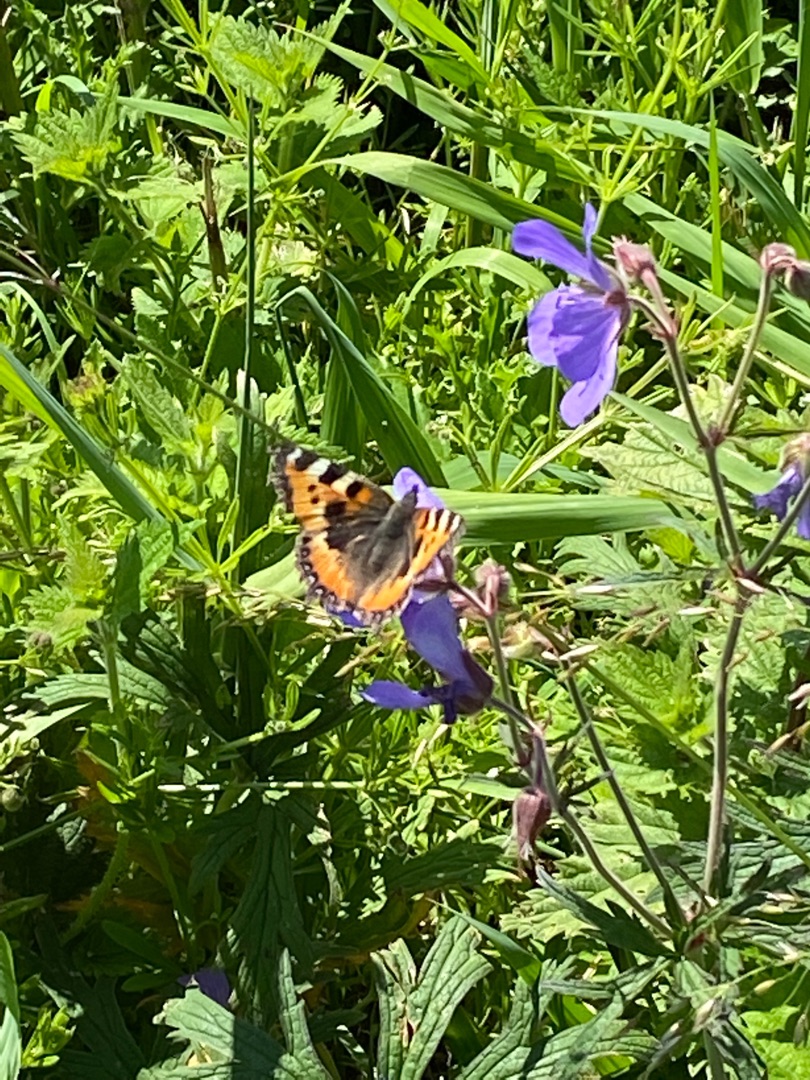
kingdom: Animalia
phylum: Arthropoda
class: Insecta
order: Lepidoptera
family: Nymphalidae
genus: Aglais
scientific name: Aglais urticae
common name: Nældens takvinge
